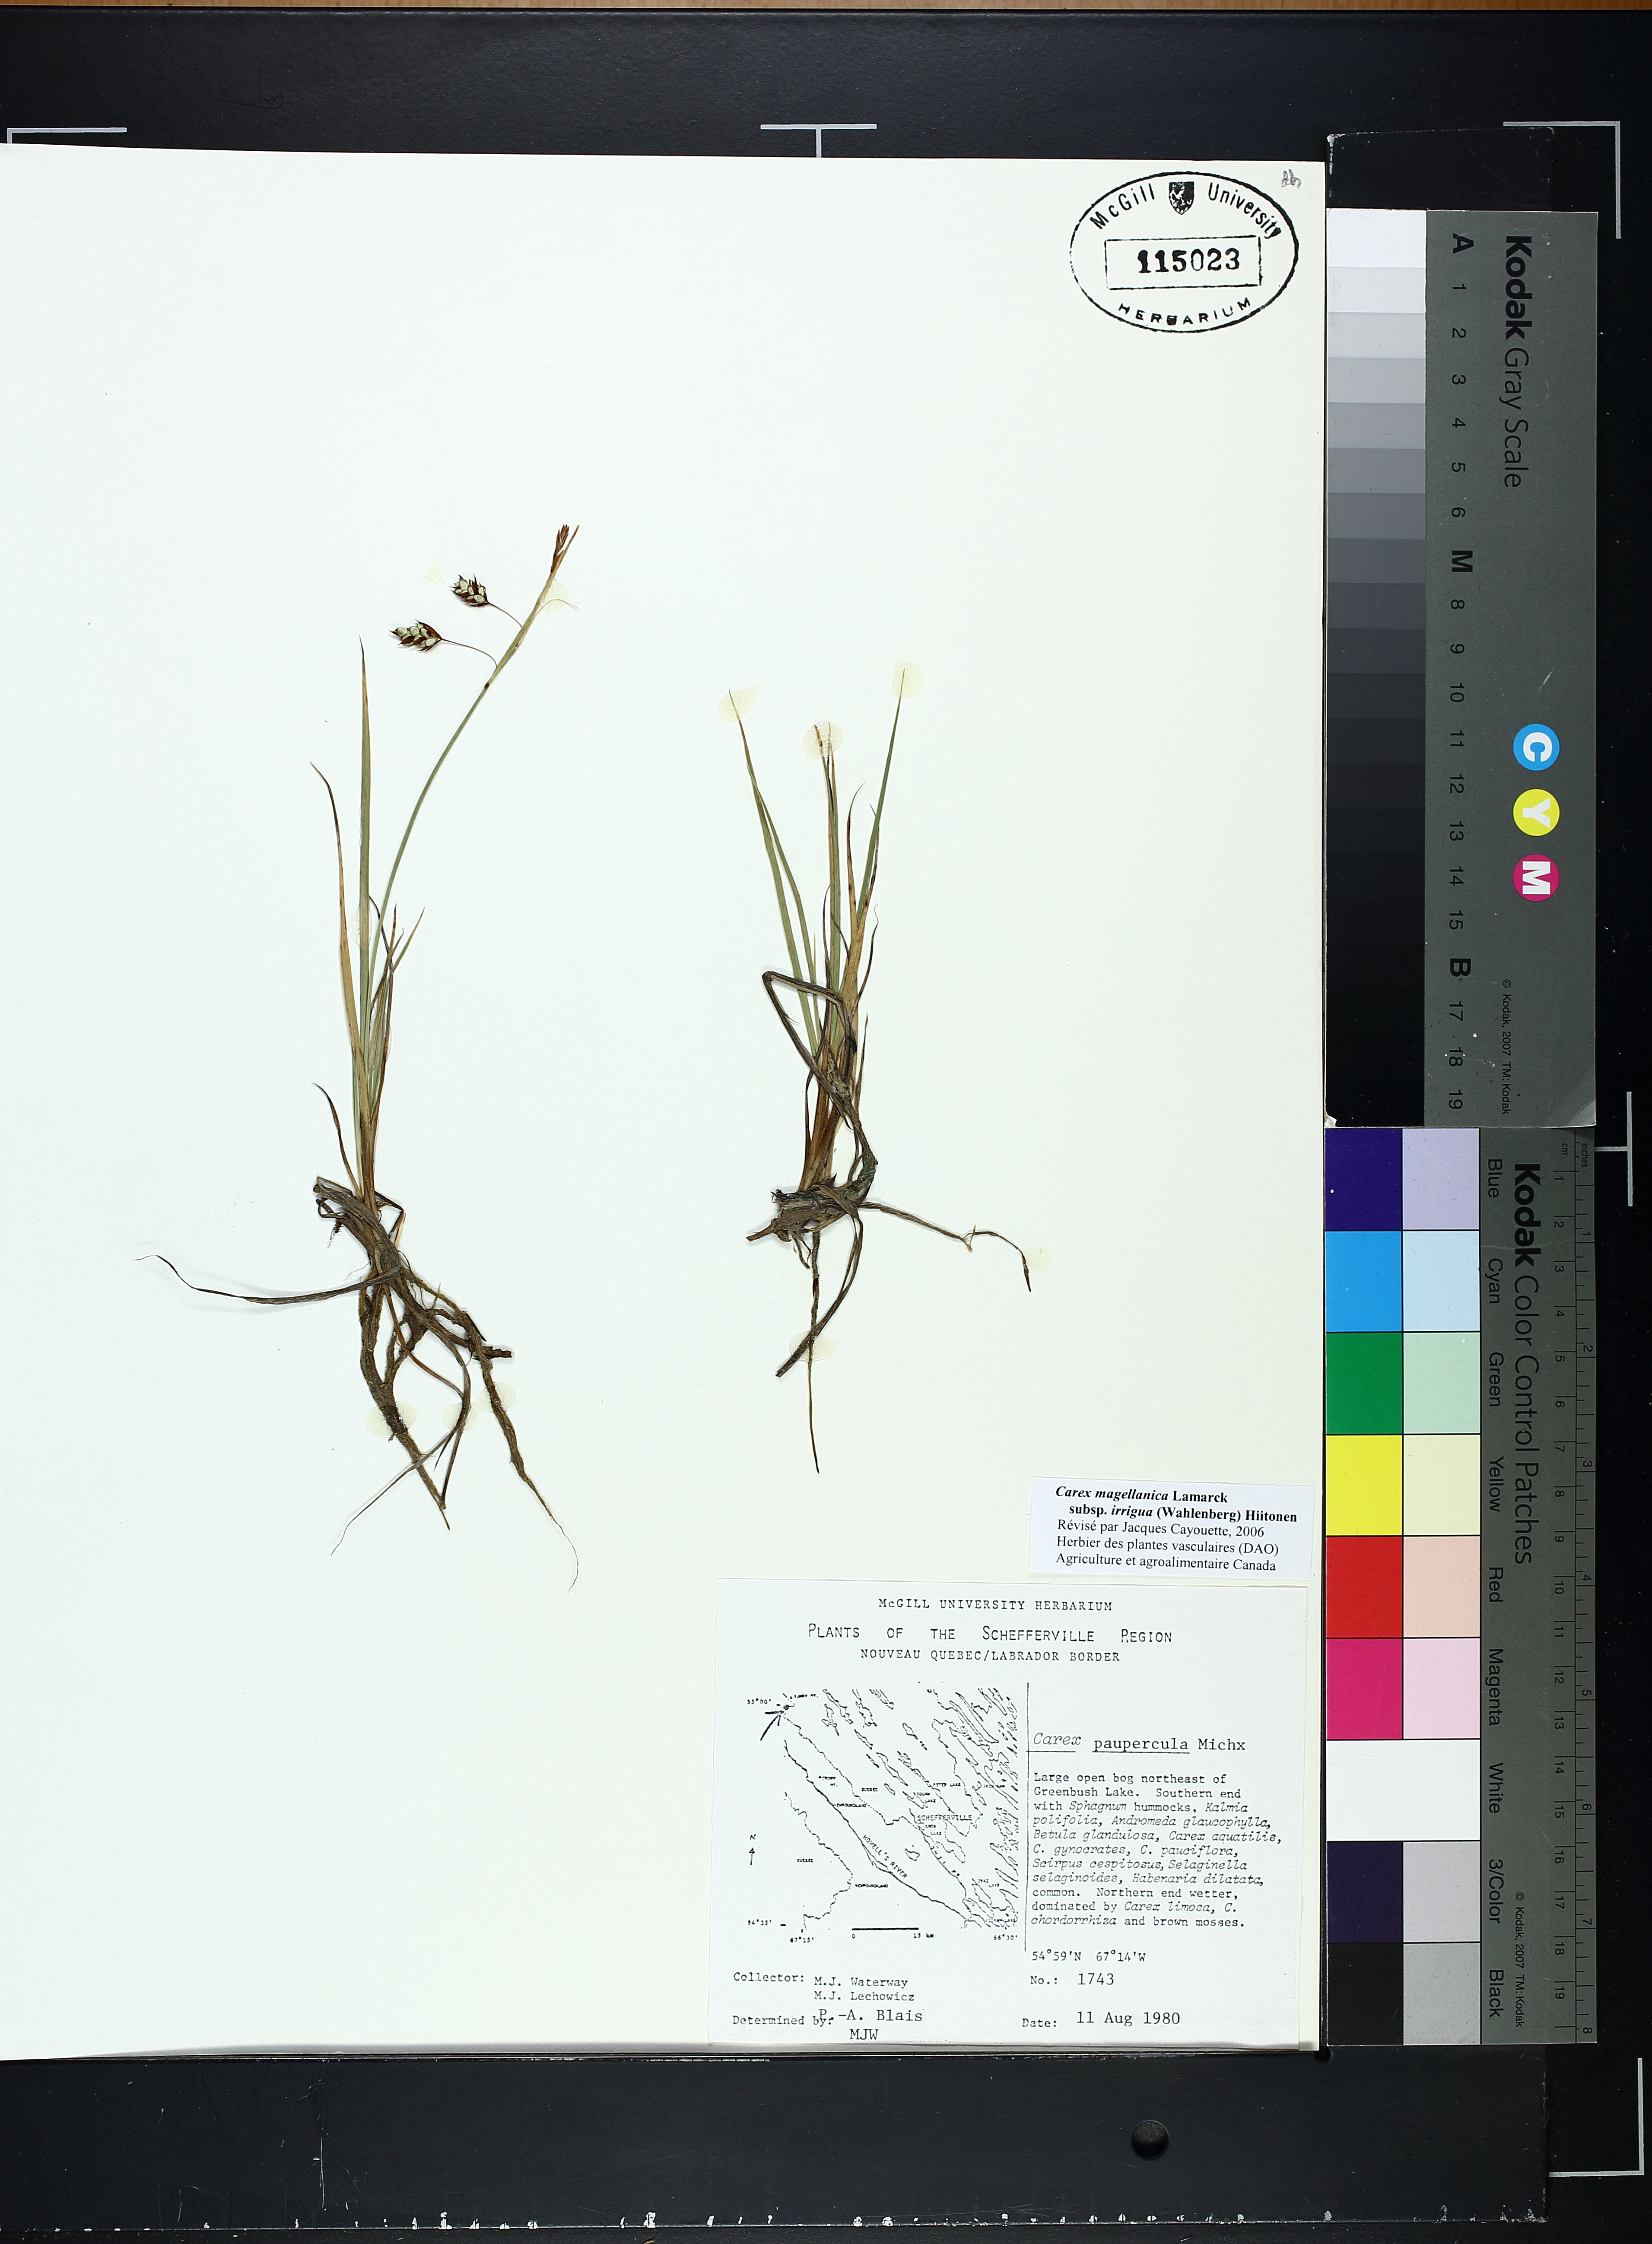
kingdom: Plantae
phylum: Tracheophyta
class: Liliopsida
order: Poales
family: Cyperaceae
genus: Carex
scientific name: Carex magellanica
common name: Bog sedge
